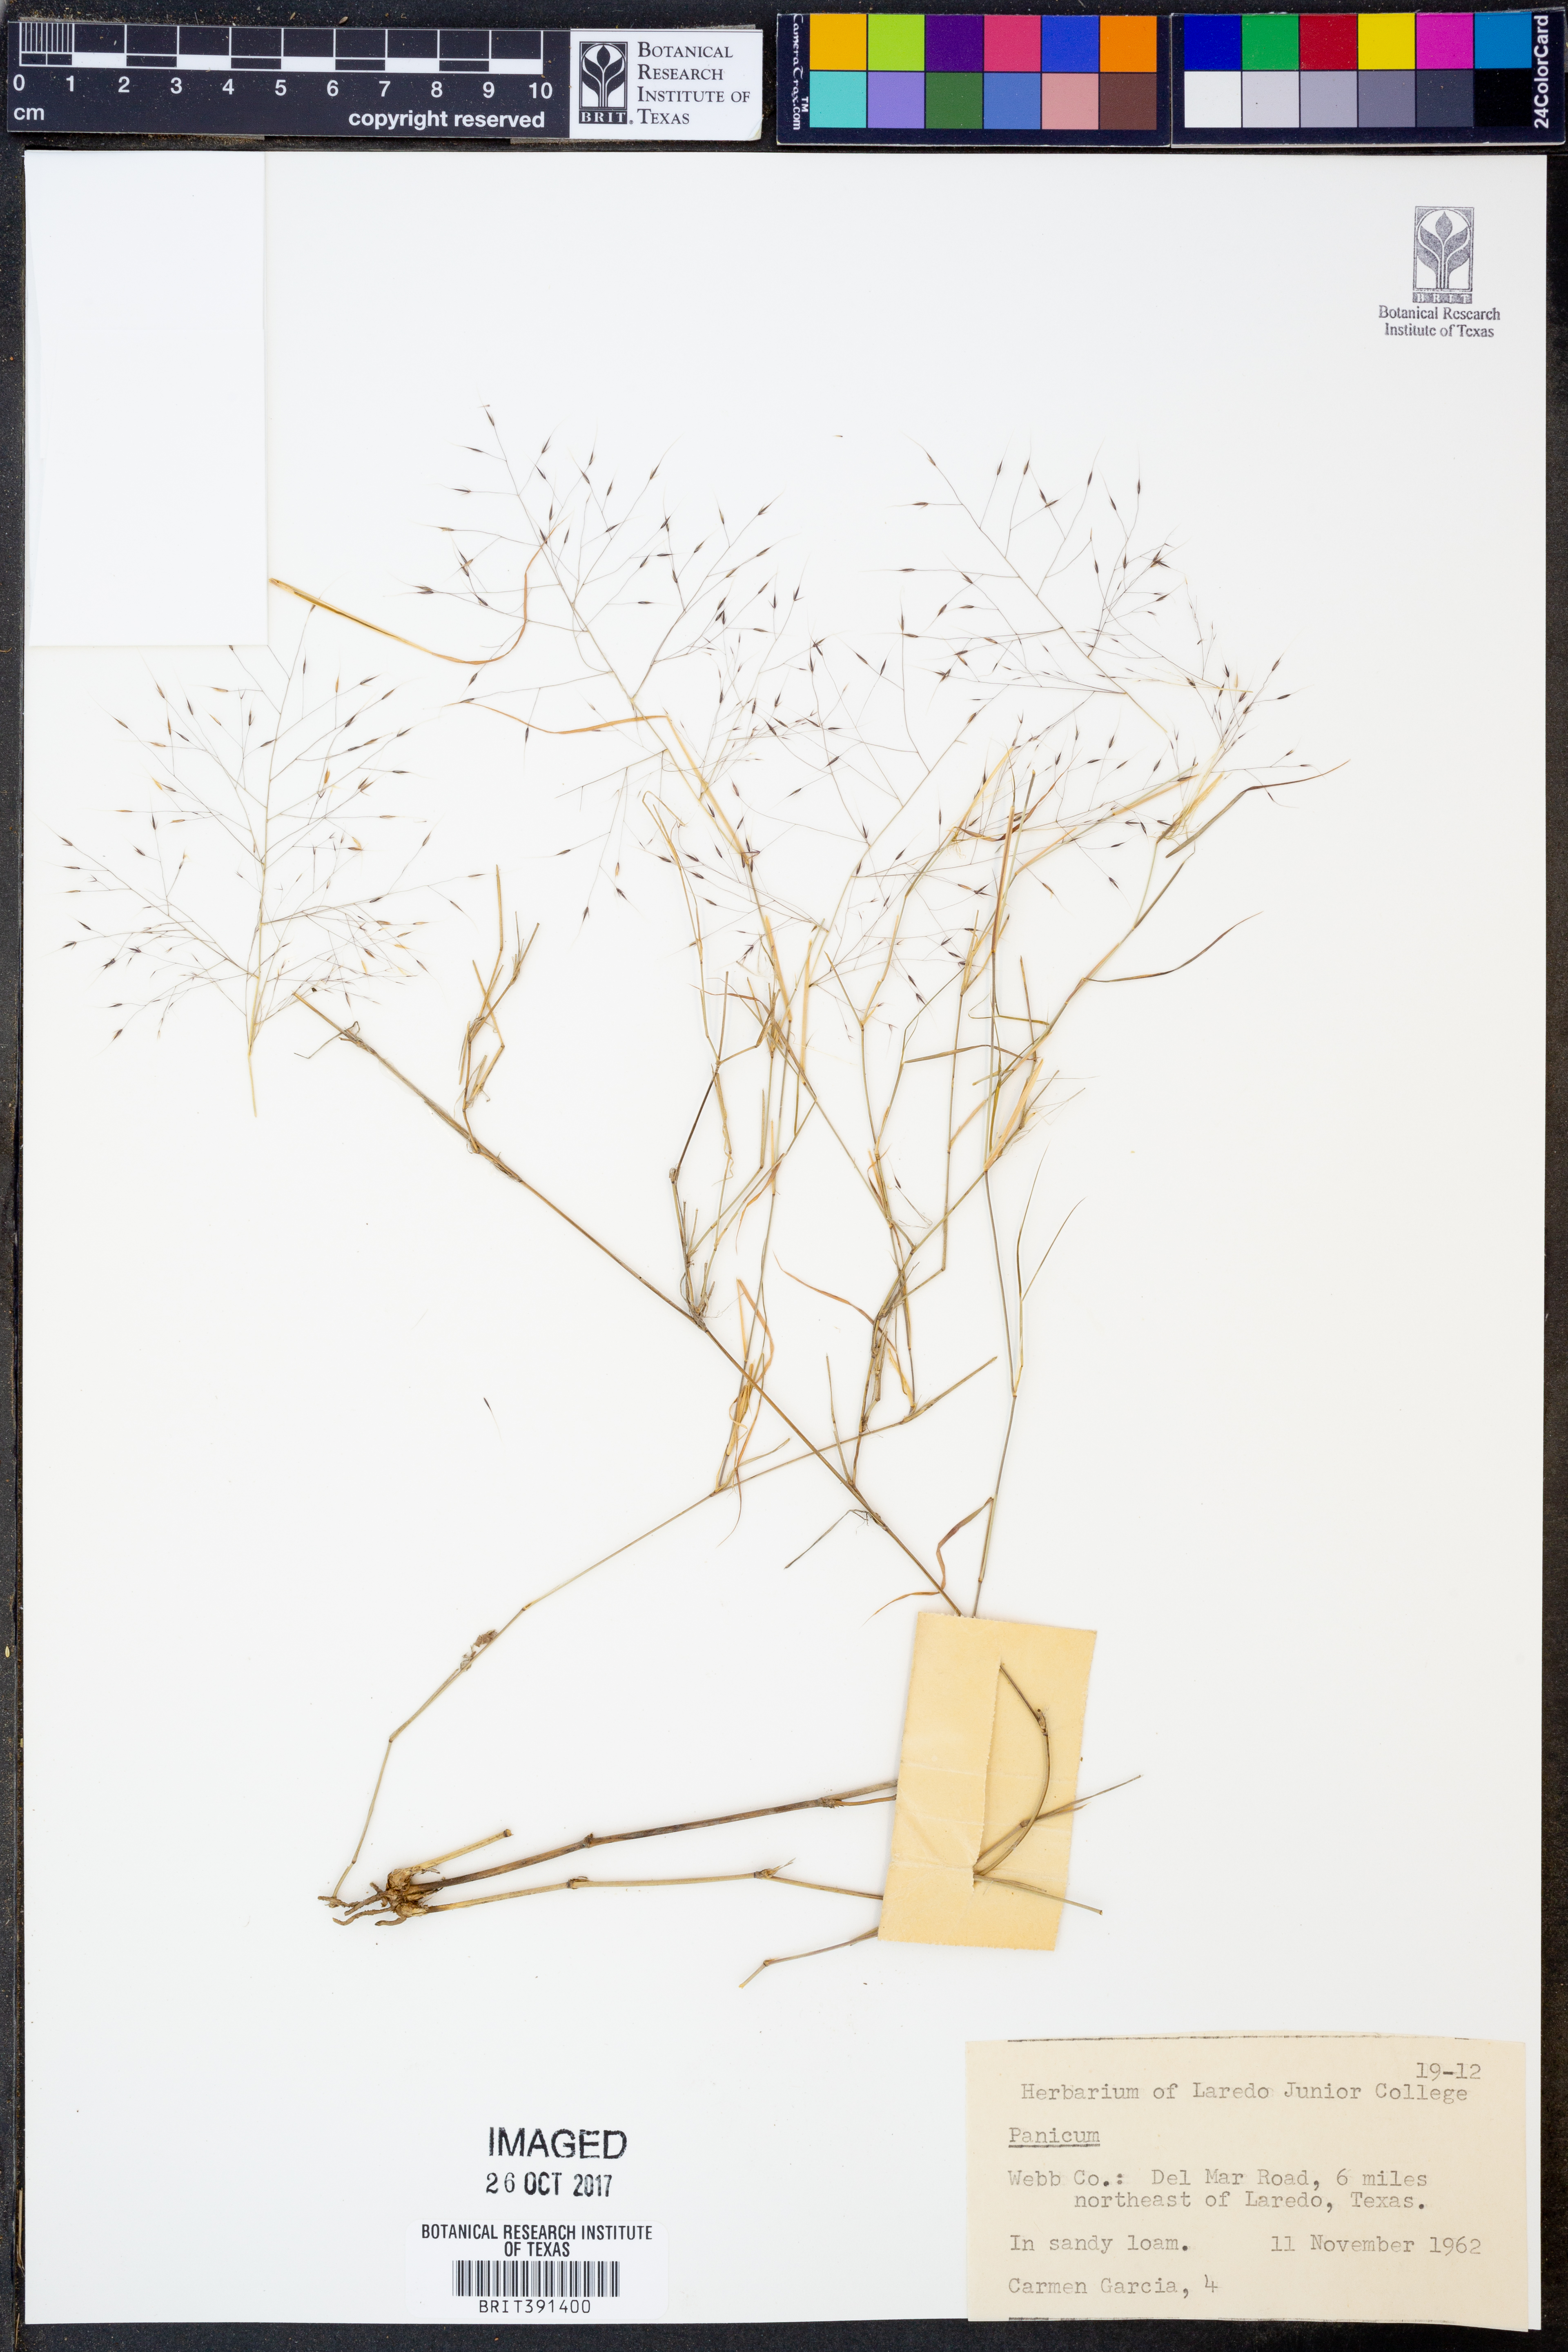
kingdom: Plantae
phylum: Tracheophyta
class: Liliopsida
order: Poales
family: Poaceae
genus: Panicum
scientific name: Panicum
